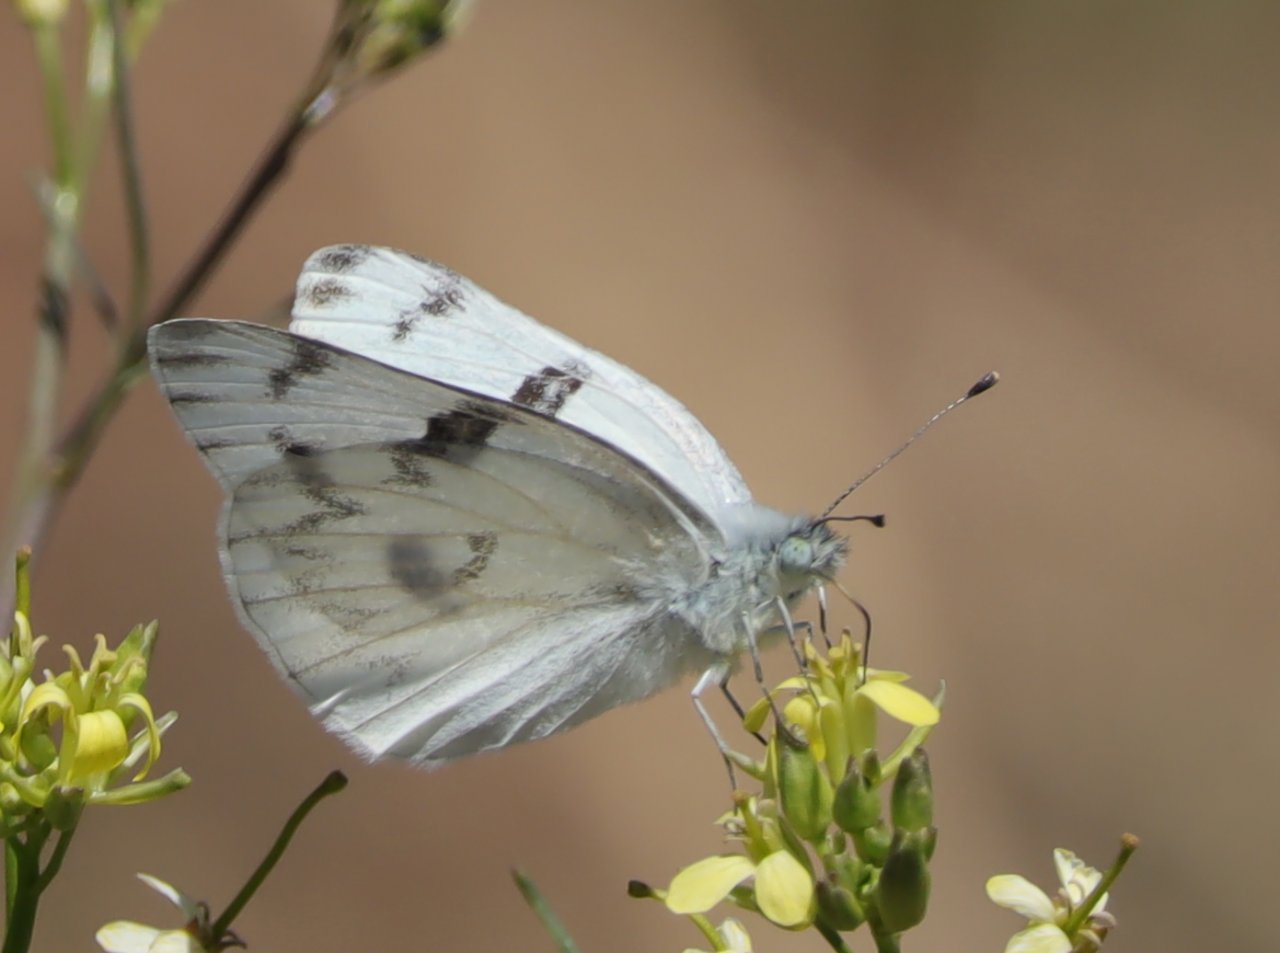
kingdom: Animalia
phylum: Arthropoda
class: Insecta
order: Lepidoptera
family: Pieridae
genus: Pontia
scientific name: Pontia protodice
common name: Checkered White
